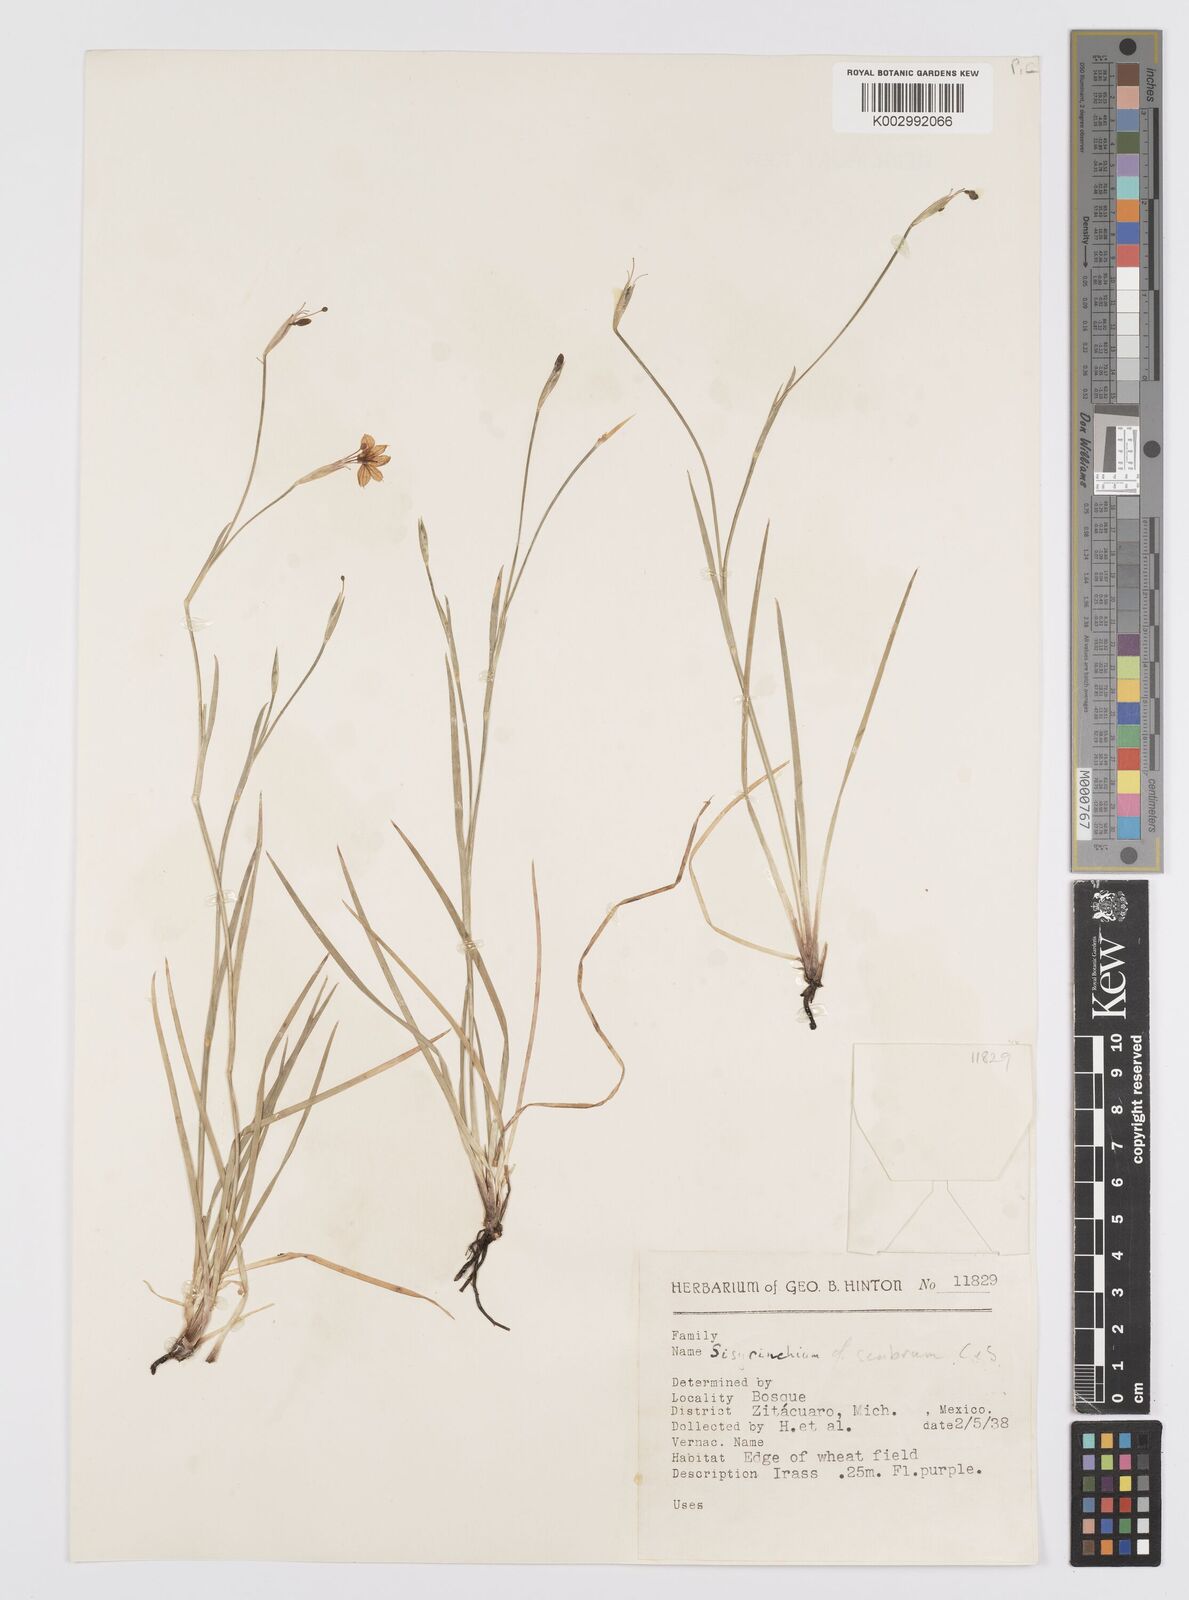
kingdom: Plantae
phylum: Tracheophyta
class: Liliopsida
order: Asparagales
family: Iridaceae
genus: Sisyrinchium
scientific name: Sisyrinchium scabrum
